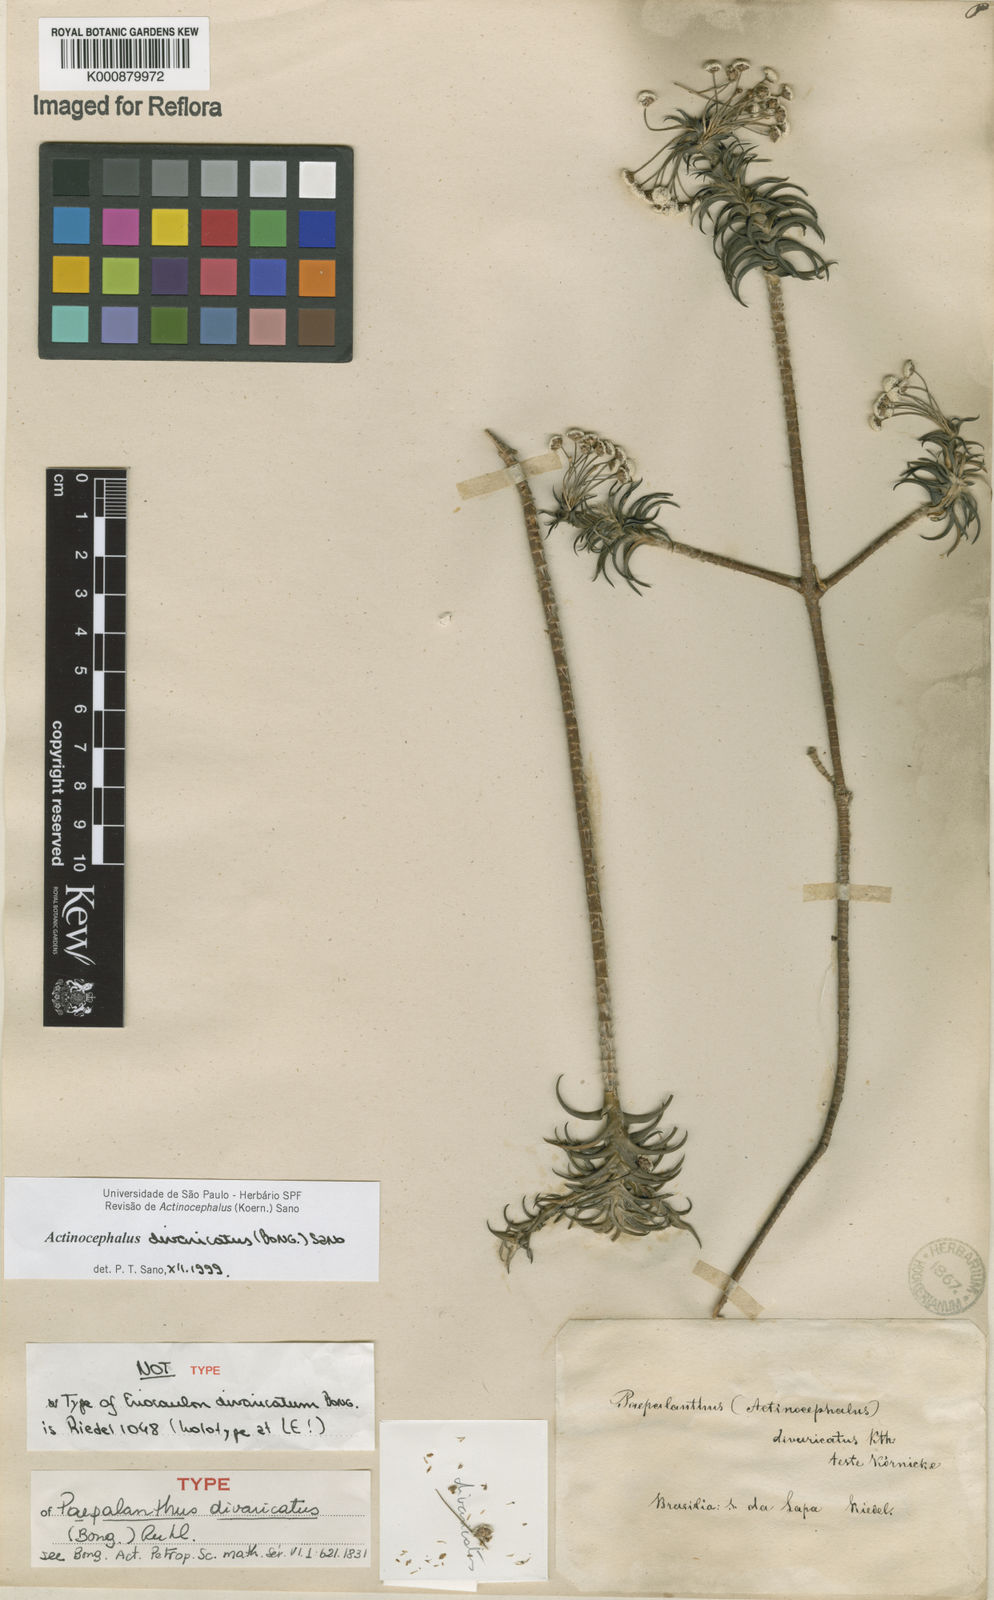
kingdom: Plantae
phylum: Tracheophyta
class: Liliopsida
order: Poales
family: Eriocaulaceae
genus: Paepalanthus
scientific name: Paepalanthus divaricatus
